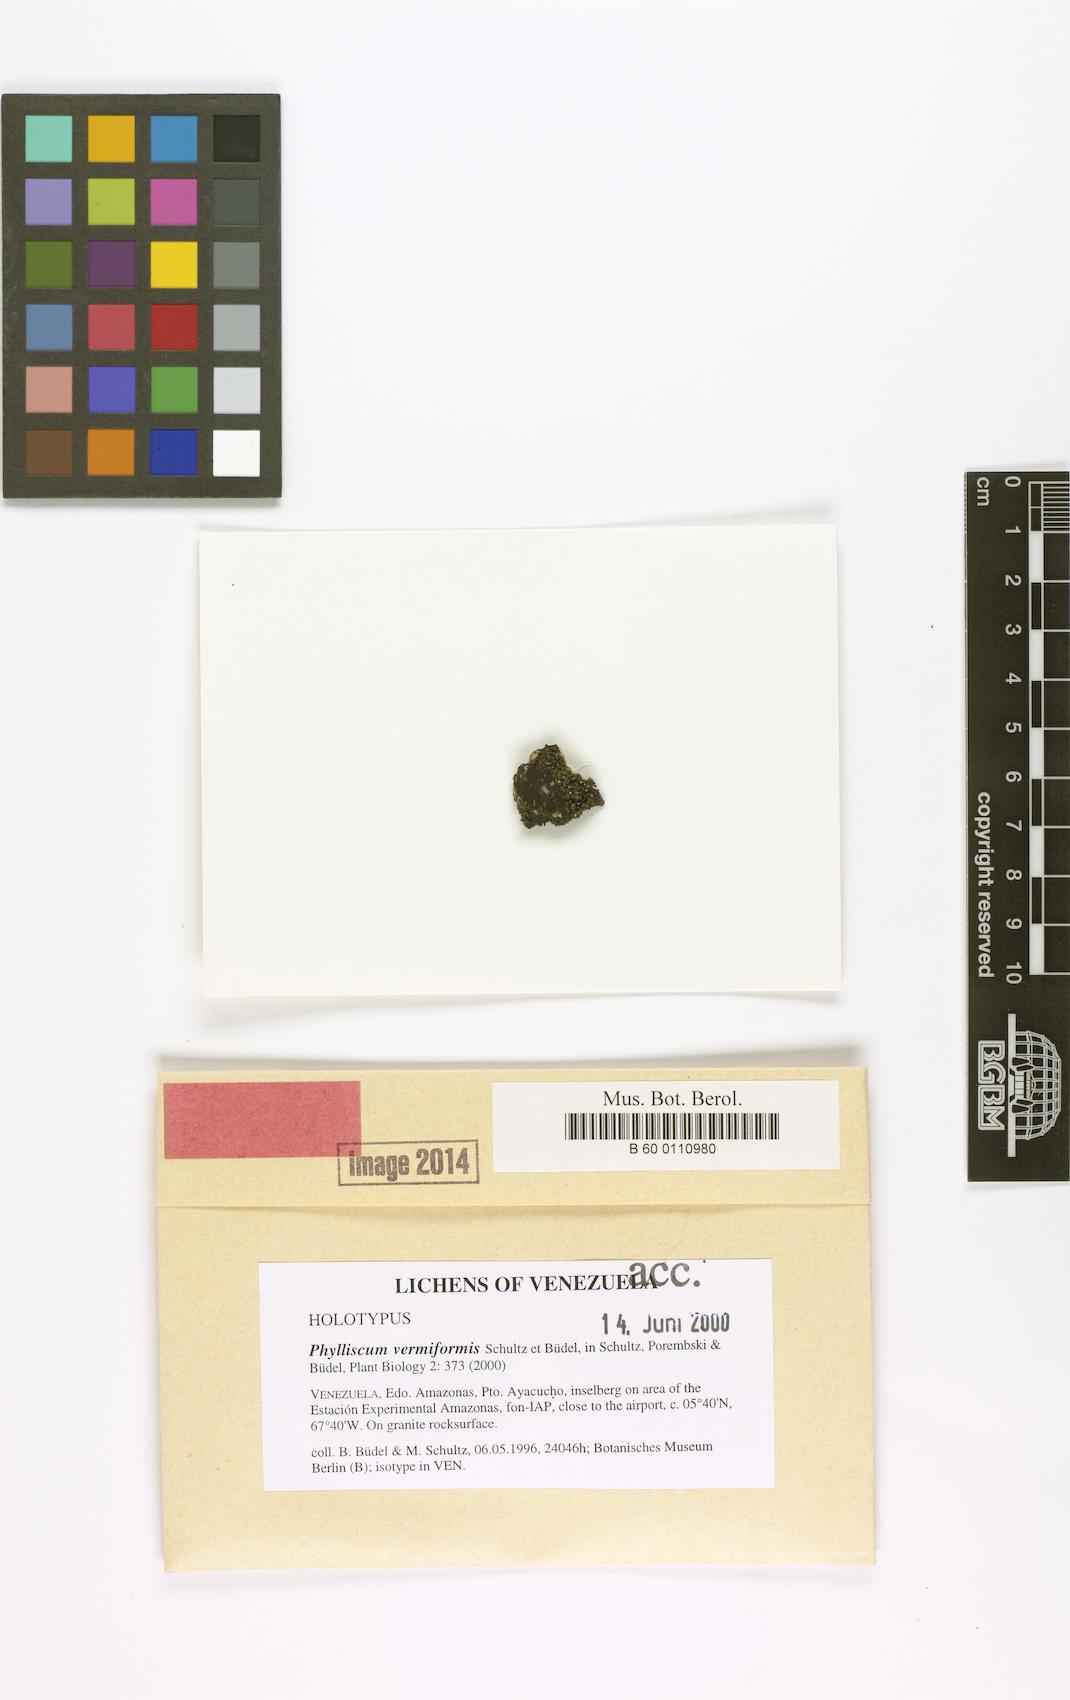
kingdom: Fungi
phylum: Ascomycota
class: Lichinomycetes
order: Lichinales
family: Lichinaceae
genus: Phylliscum
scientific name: Phylliscum vermiformis
